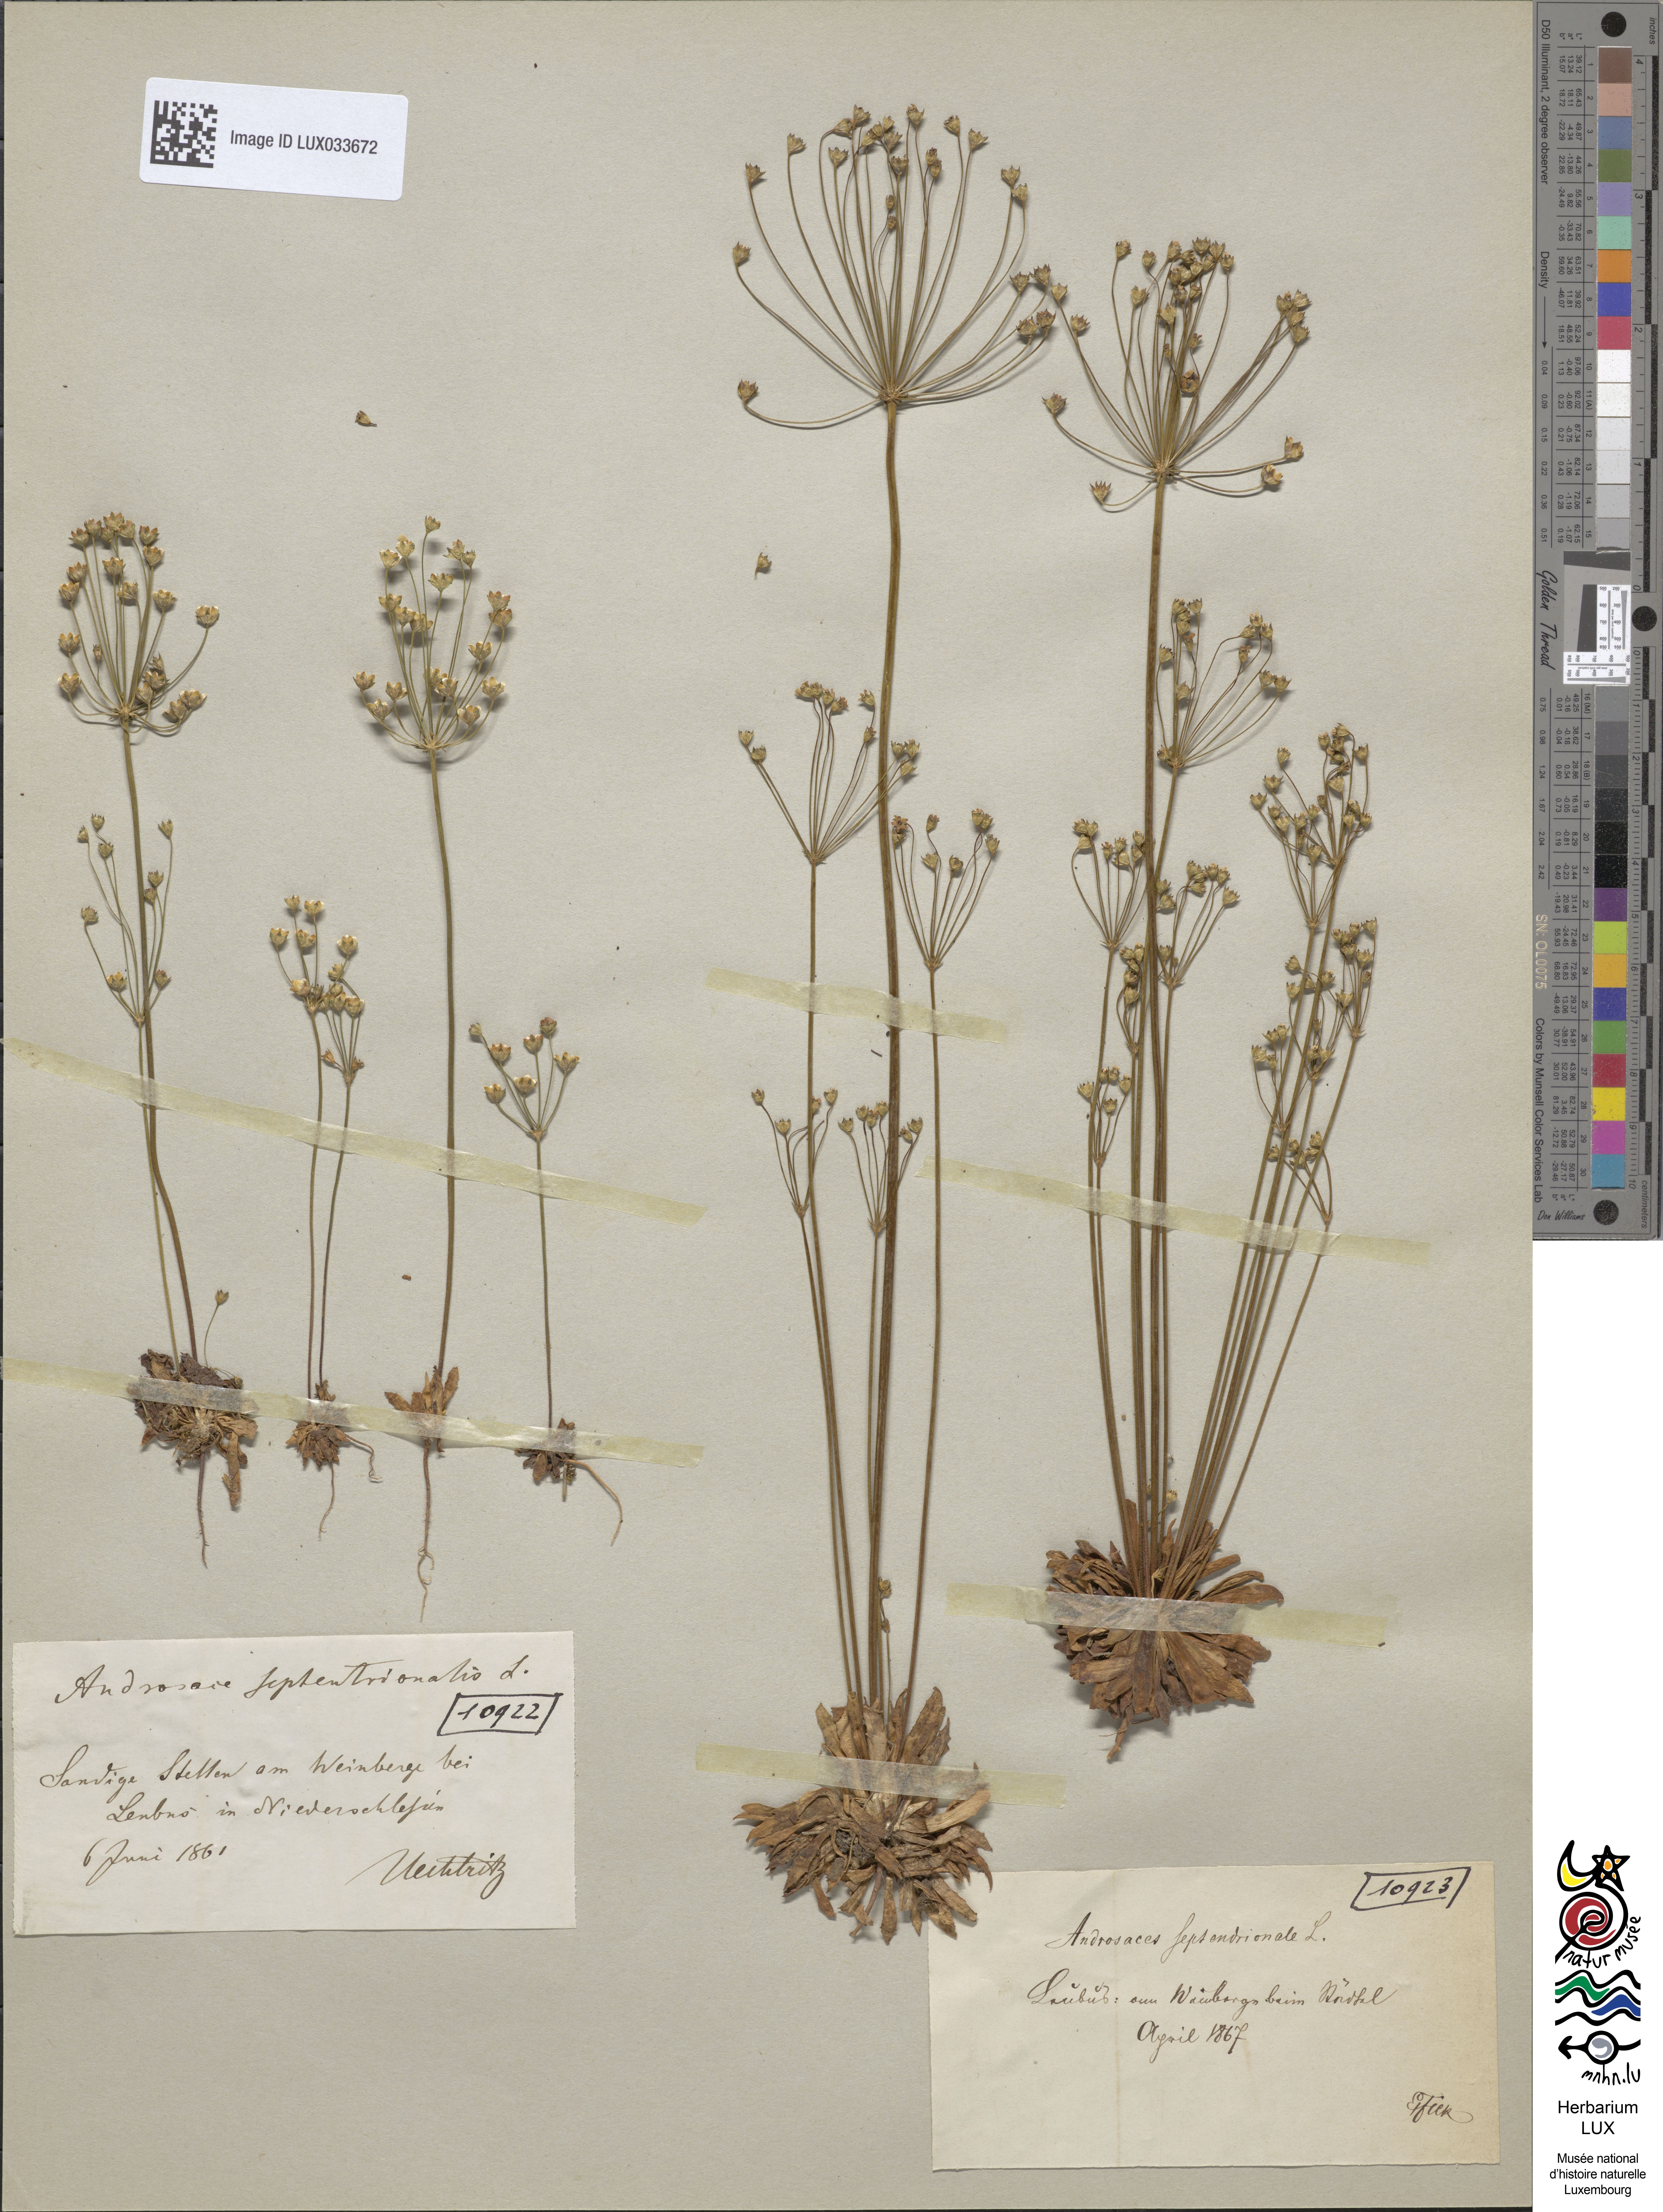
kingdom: Plantae
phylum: Tracheophyta
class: Magnoliopsida
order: Ericales
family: Primulaceae
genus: Androsace
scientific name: Androsace septentrionalis
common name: Hairy northern fairy-candelabra
